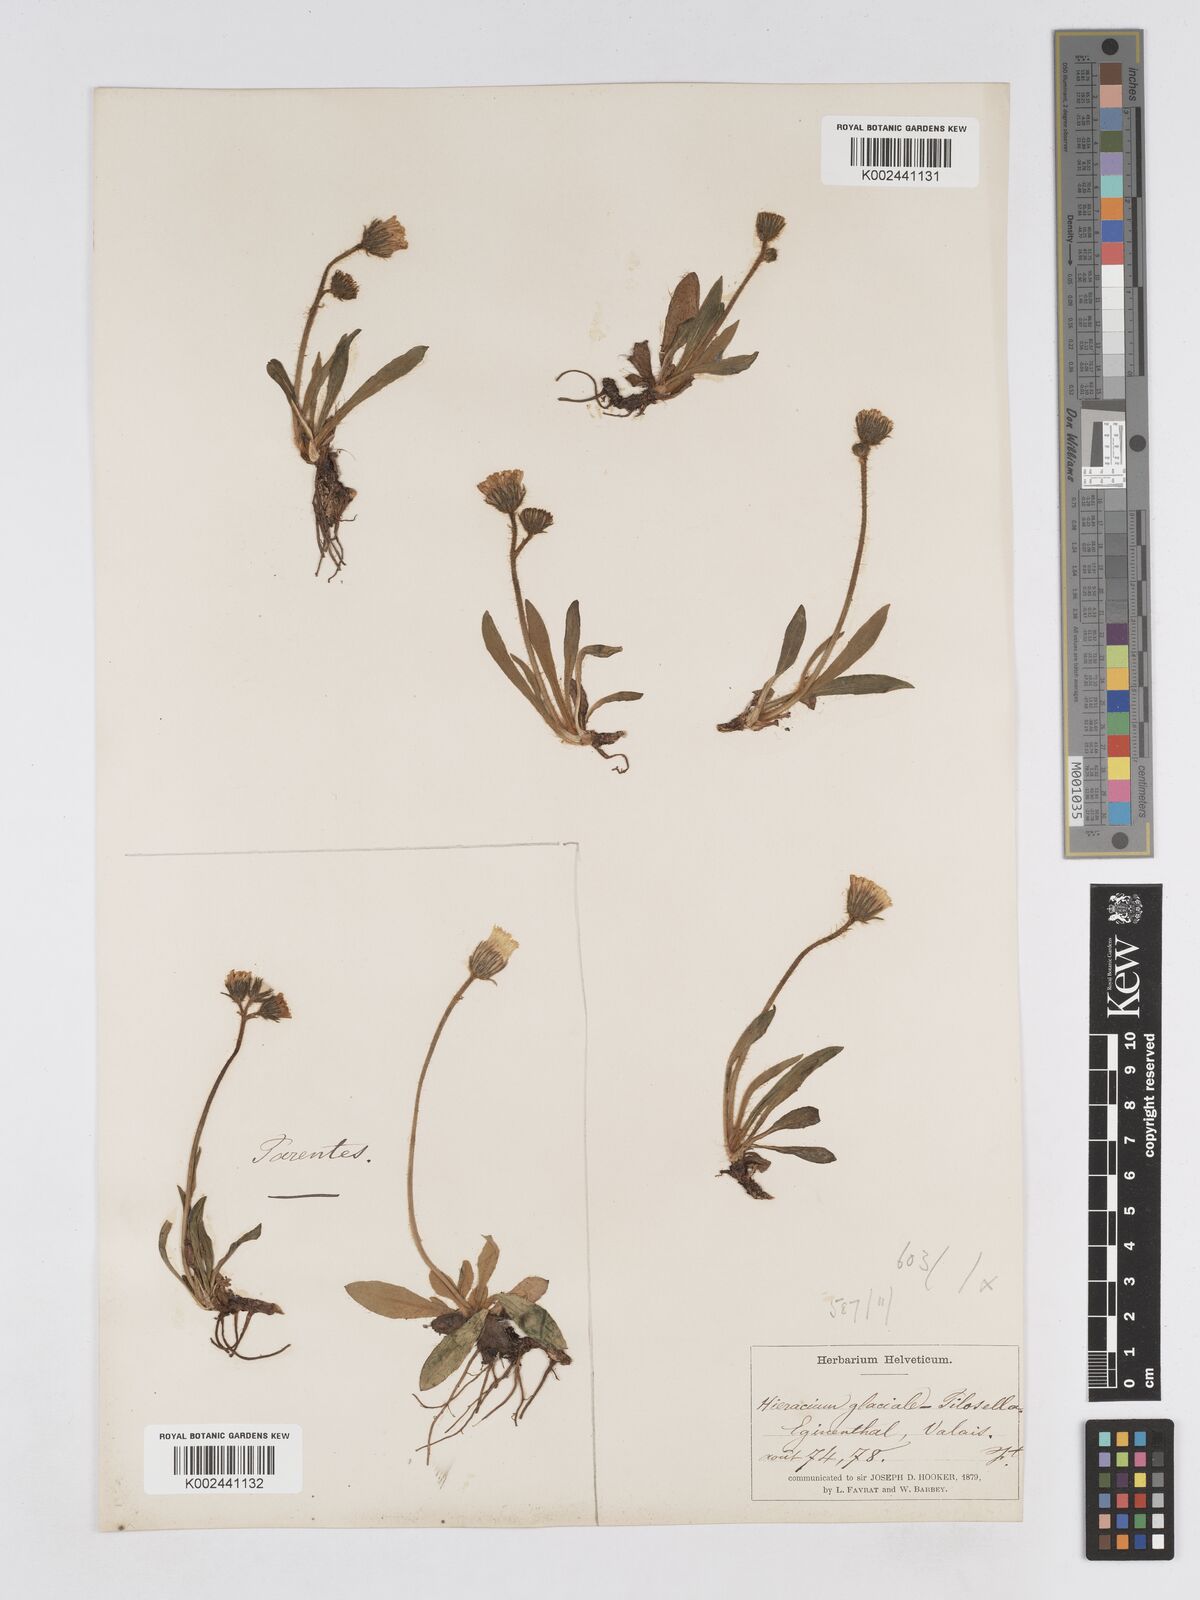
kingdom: Plantae
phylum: Tracheophyta
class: Magnoliopsida
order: Asterales
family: Asteraceae
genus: Pilosella
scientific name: Pilosella hypoleuca
